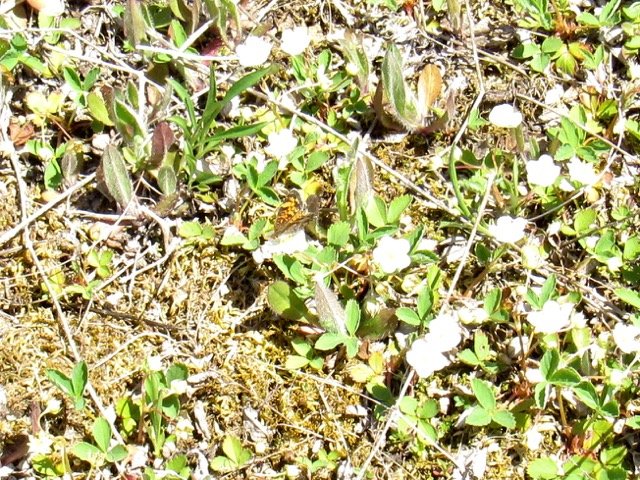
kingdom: Animalia
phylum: Arthropoda
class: Insecta
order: Lepidoptera
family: Nymphalidae
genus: Phyciodes
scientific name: Phyciodes tharos
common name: Pearl Crescent
